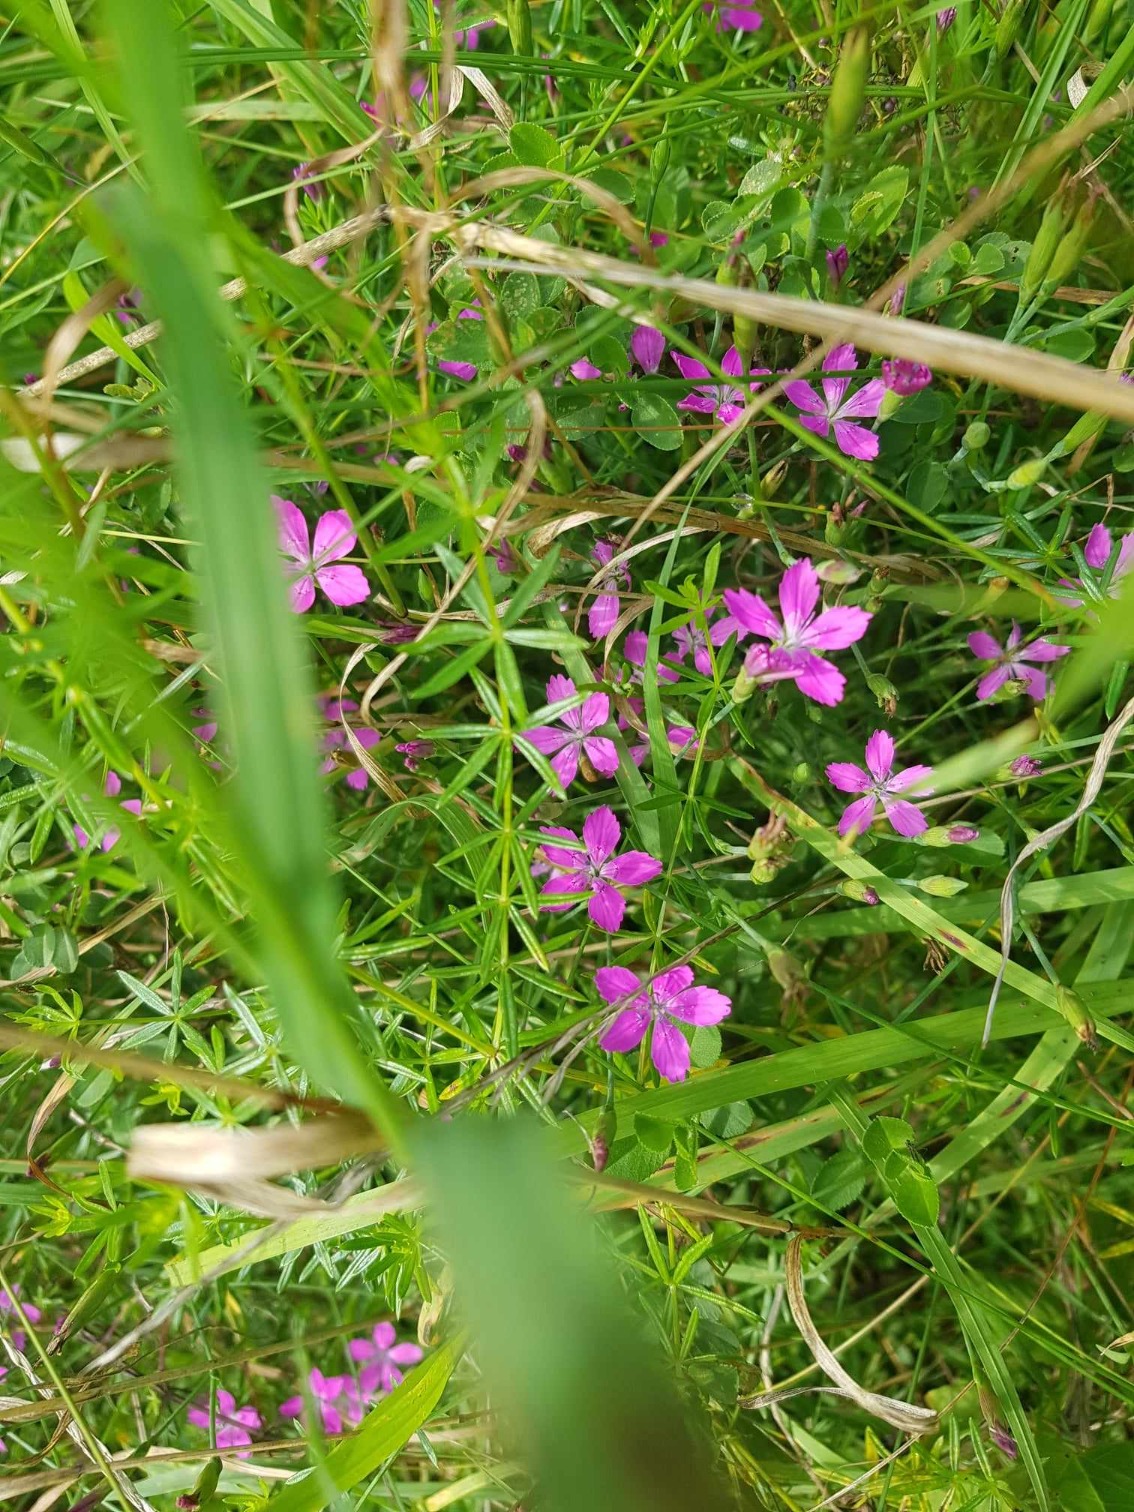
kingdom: Plantae
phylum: Tracheophyta
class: Magnoliopsida
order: Caryophyllales
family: Caryophyllaceae
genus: Dianthus
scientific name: Dianthus deltoides
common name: Bakke-nellike
